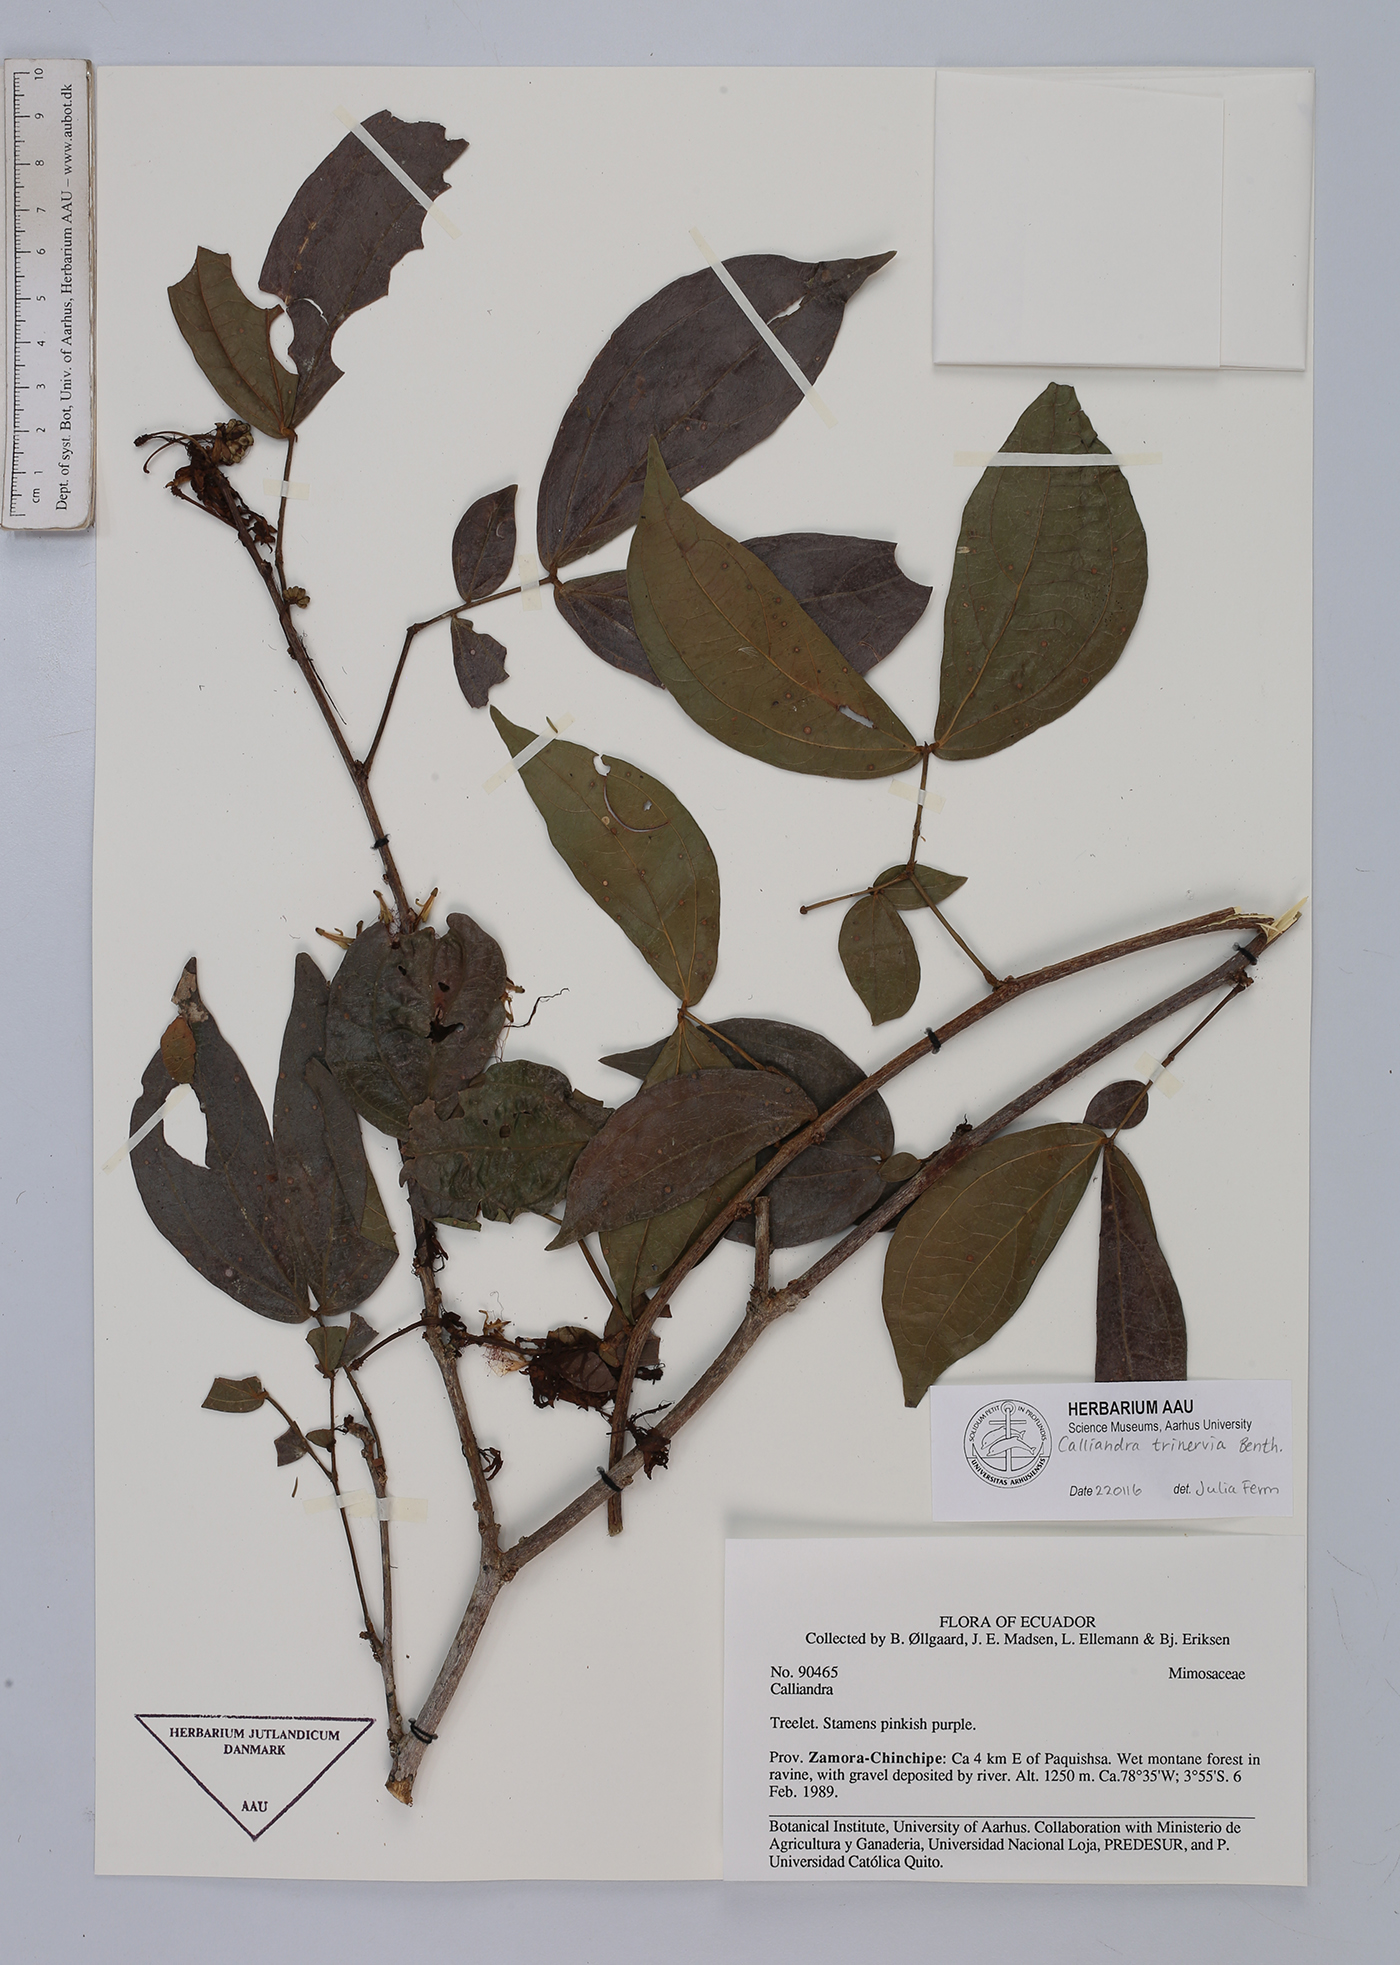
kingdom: Plantae
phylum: Tracheophyta
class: Magnoliopsida
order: Fabales
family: Fabaceae
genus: Calliandra
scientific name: Calliandra trinervia
